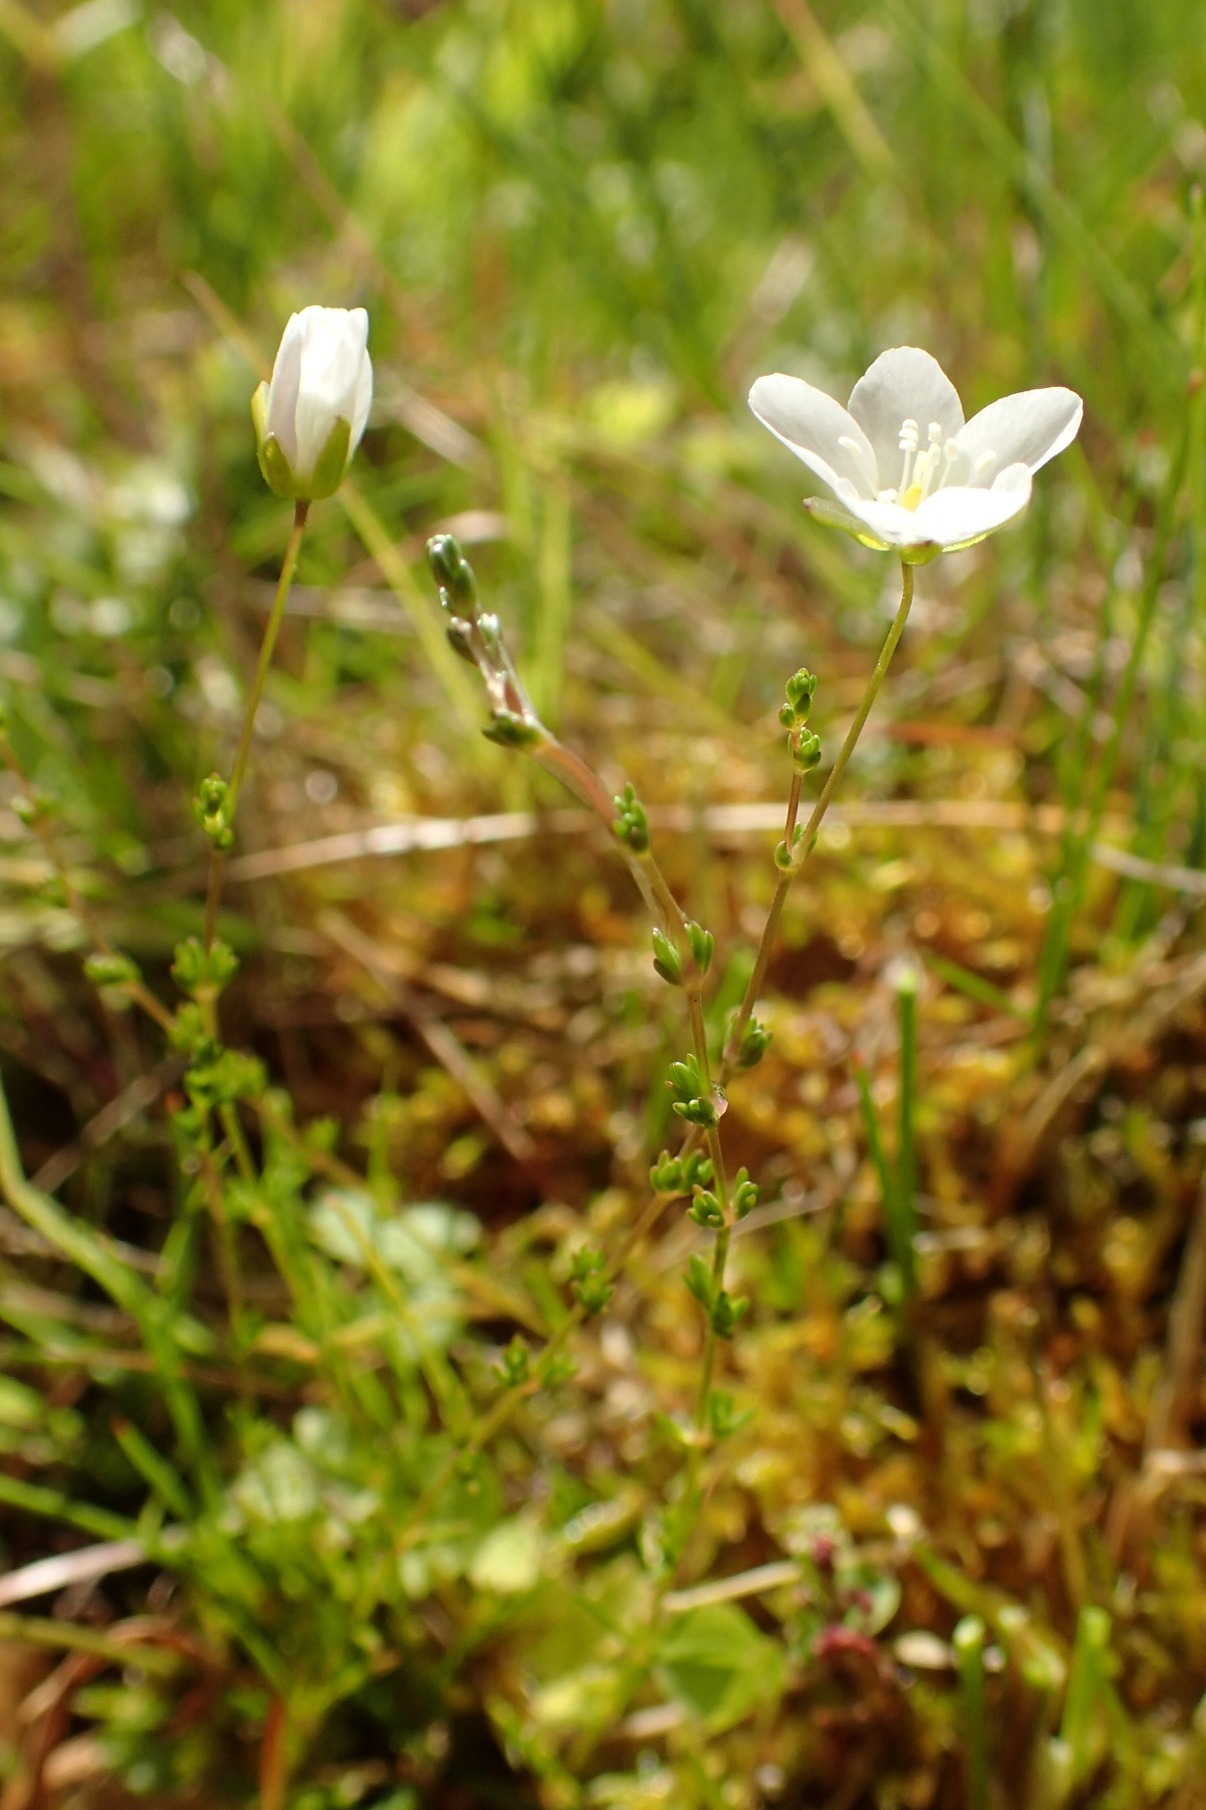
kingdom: Plantae
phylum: Tracheophyta
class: Magnoliopsida
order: Caryophyllales
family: Caryophyllaceae
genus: Sagina
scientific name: Sagina nodosa
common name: Knude-firling
